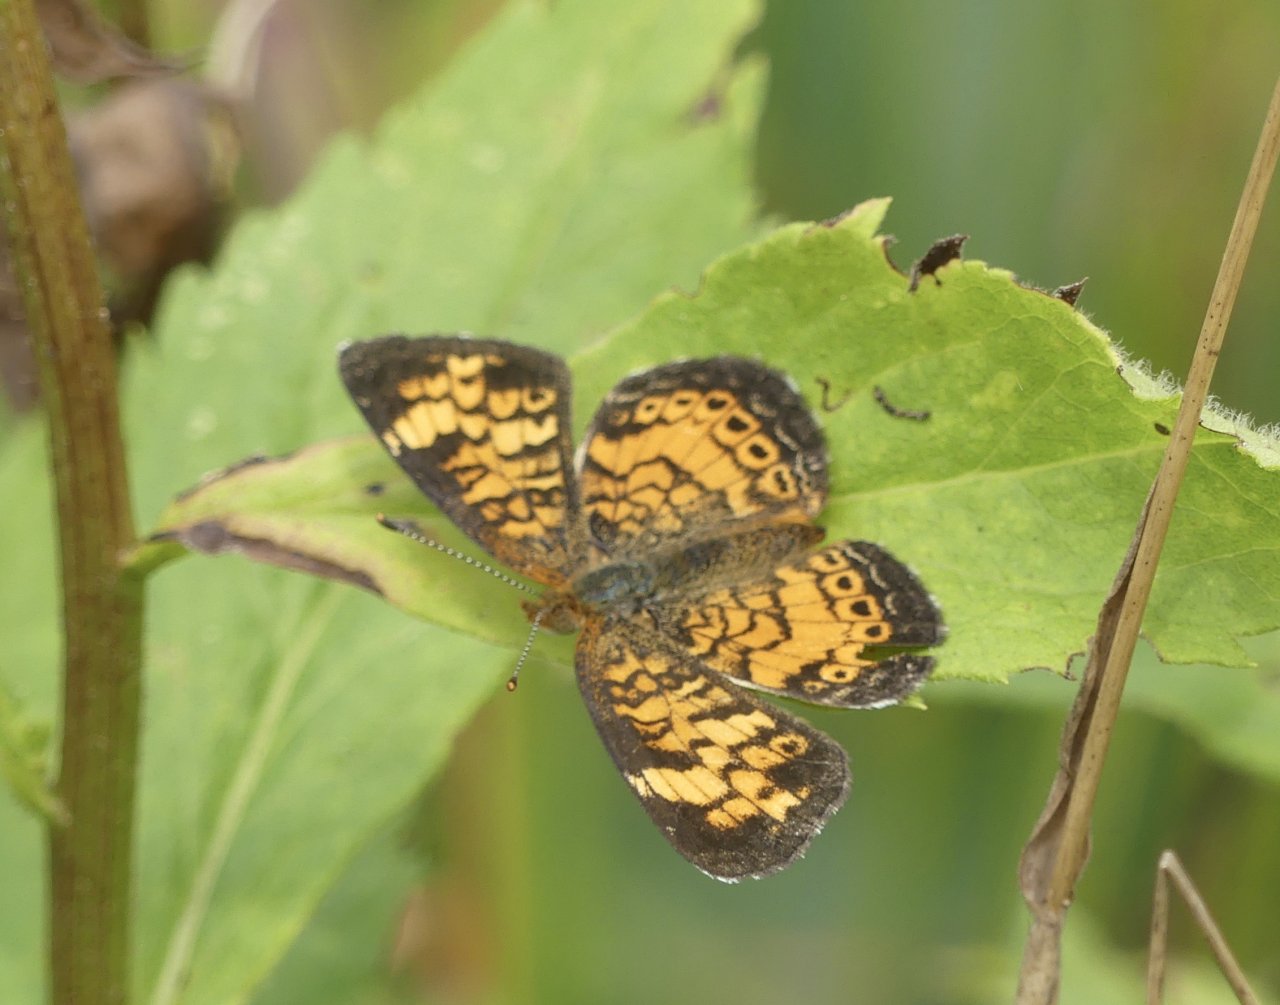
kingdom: Animalia
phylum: Arthropoda
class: Insecta
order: Lepidoptera
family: Nymphalidae
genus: Phyciodes
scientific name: Phyciodes tharos
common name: Pearl Crescent
